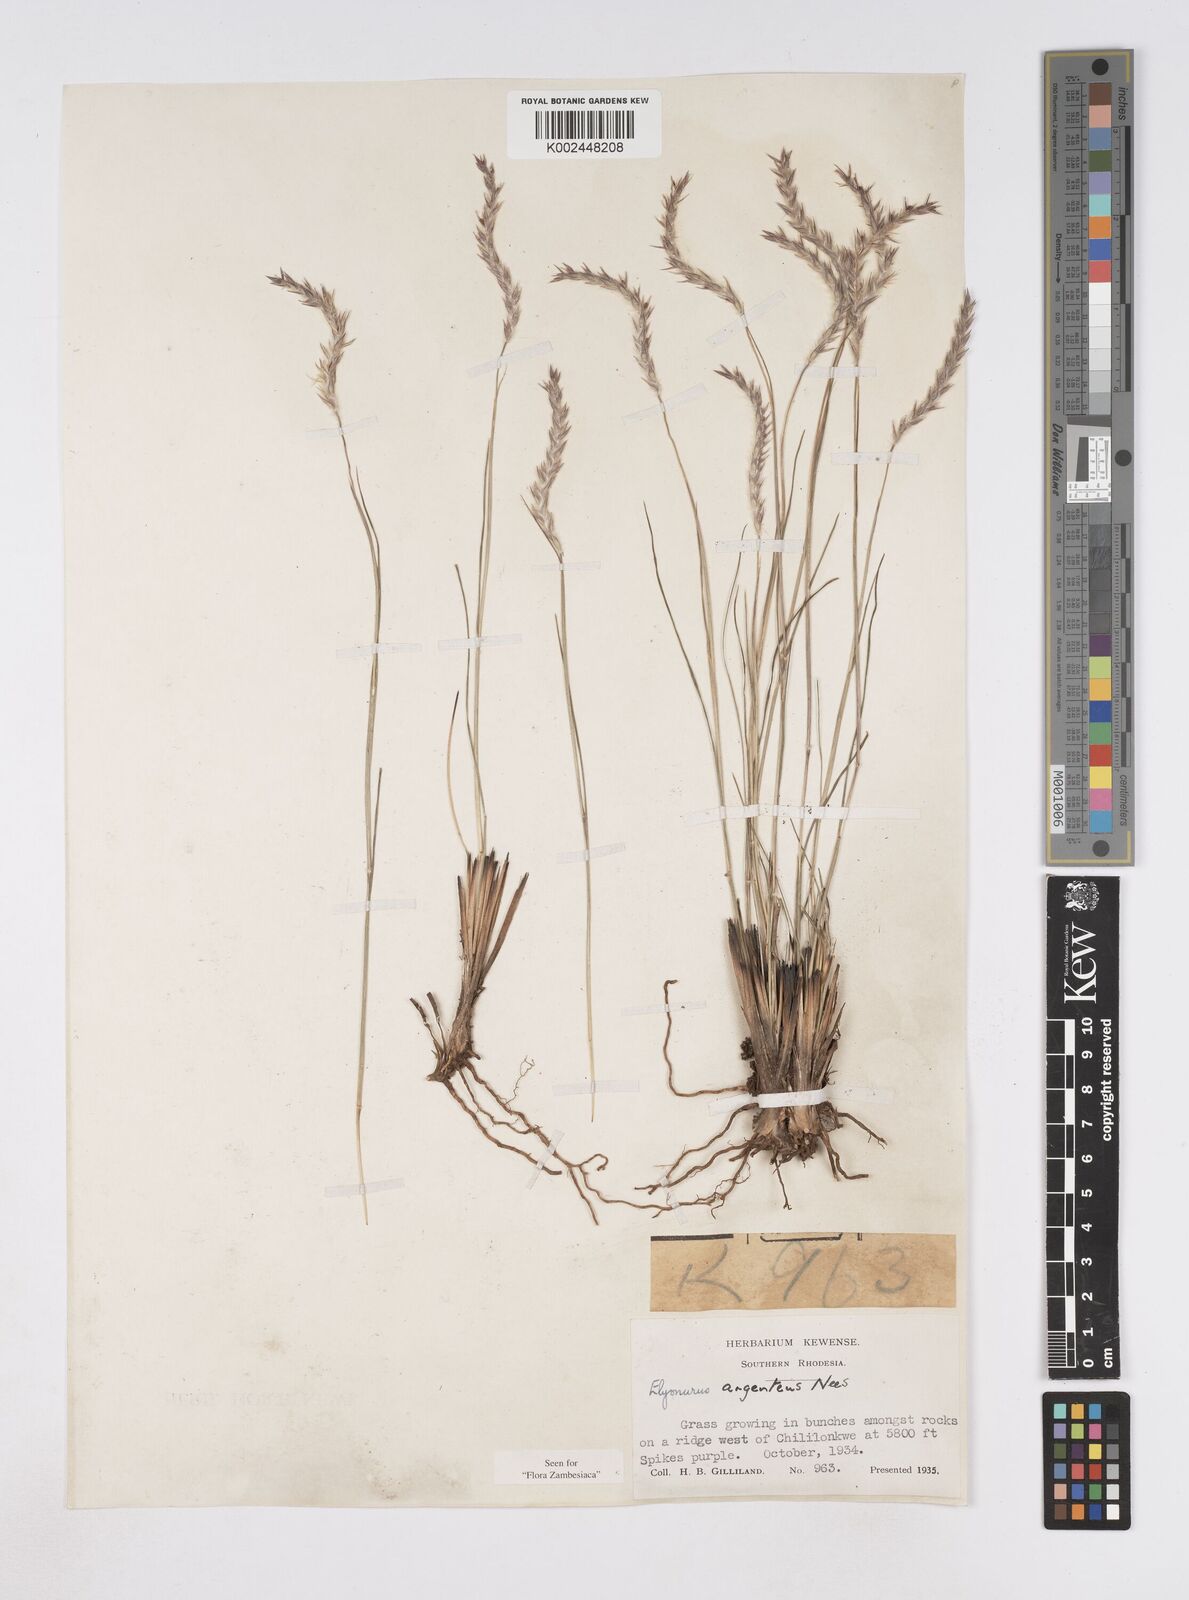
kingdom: Plantae
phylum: Tracheophyta
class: Liliopsida
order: Poales
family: Poaceae
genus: Elionurus
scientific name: Elionurus muticus
